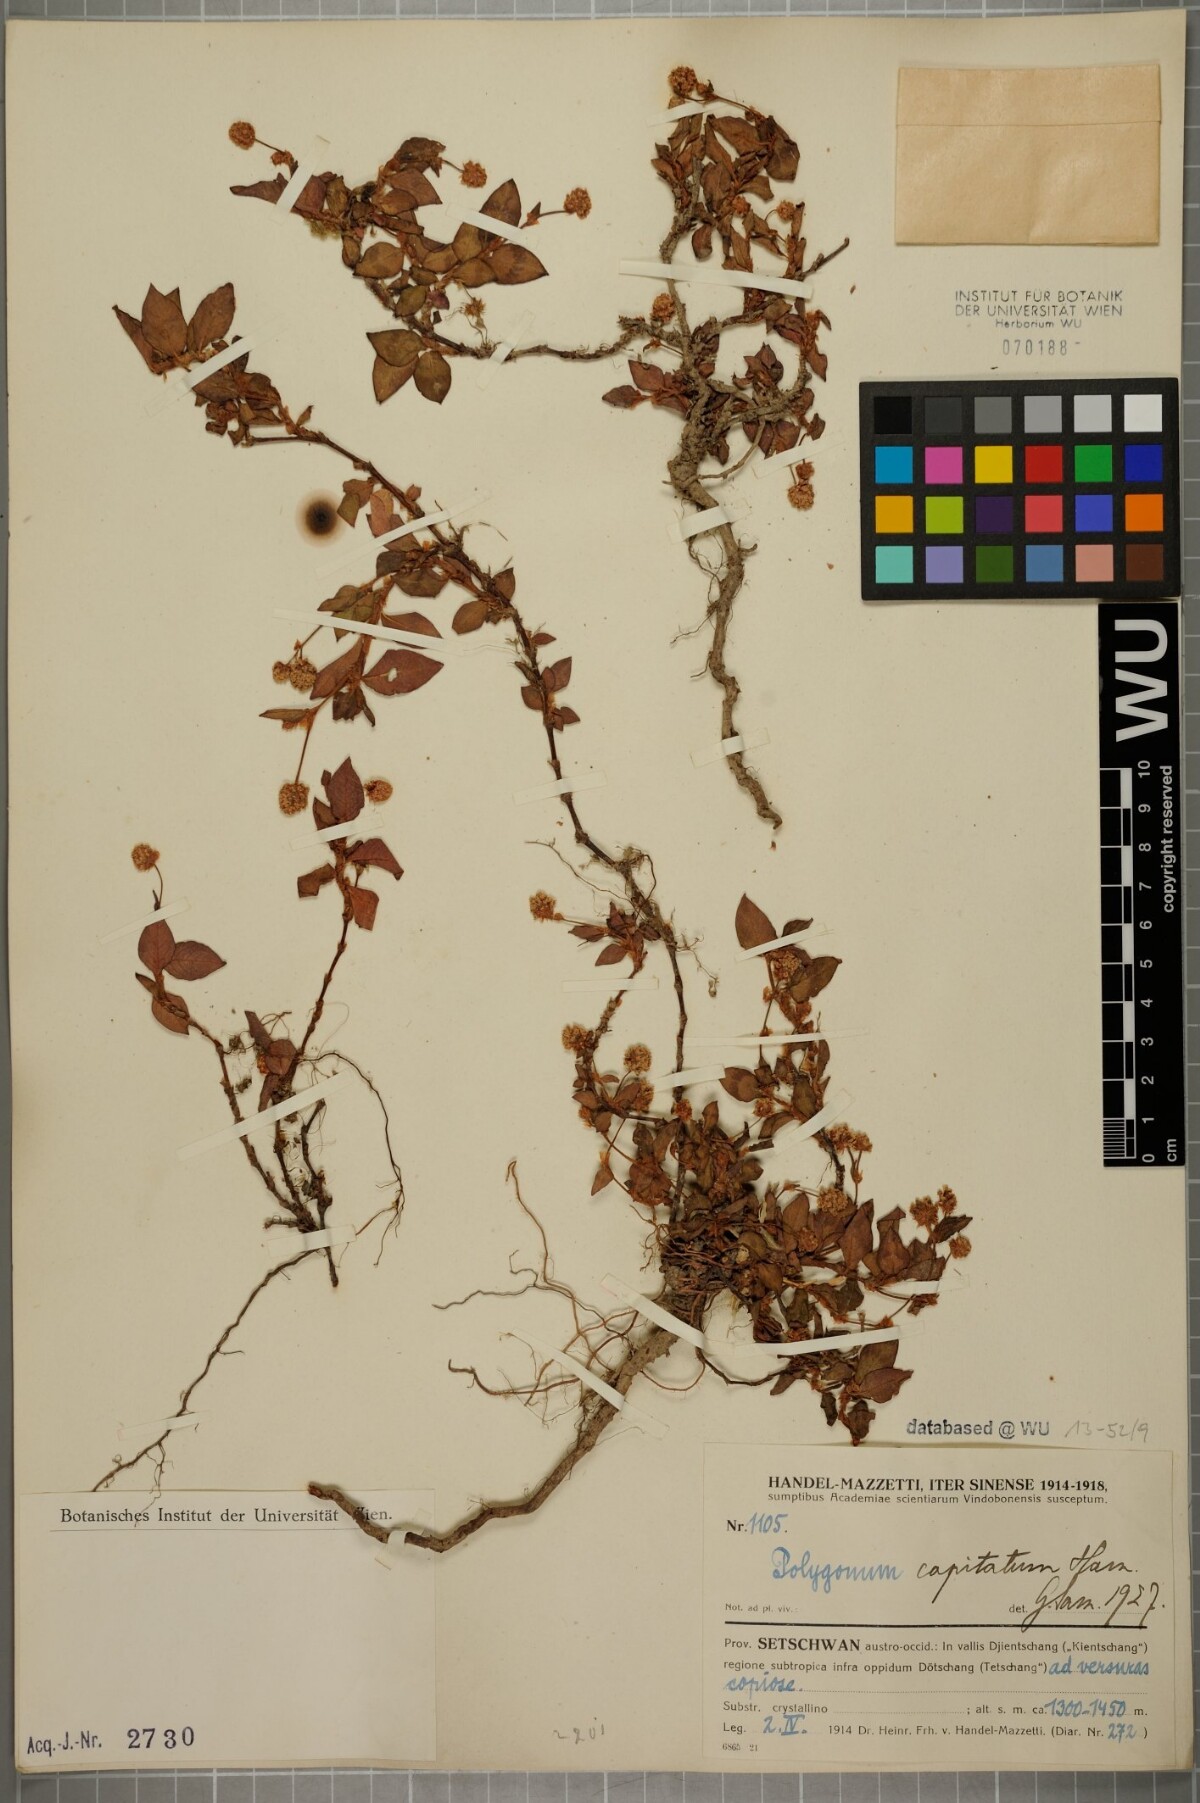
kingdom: Plantae
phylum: Tracheophyta
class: Magnoliopsida
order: Caryophyllales
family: Polygonaceae
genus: Persicaria
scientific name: Persicaria capitata
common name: Pinkhead smartweed
